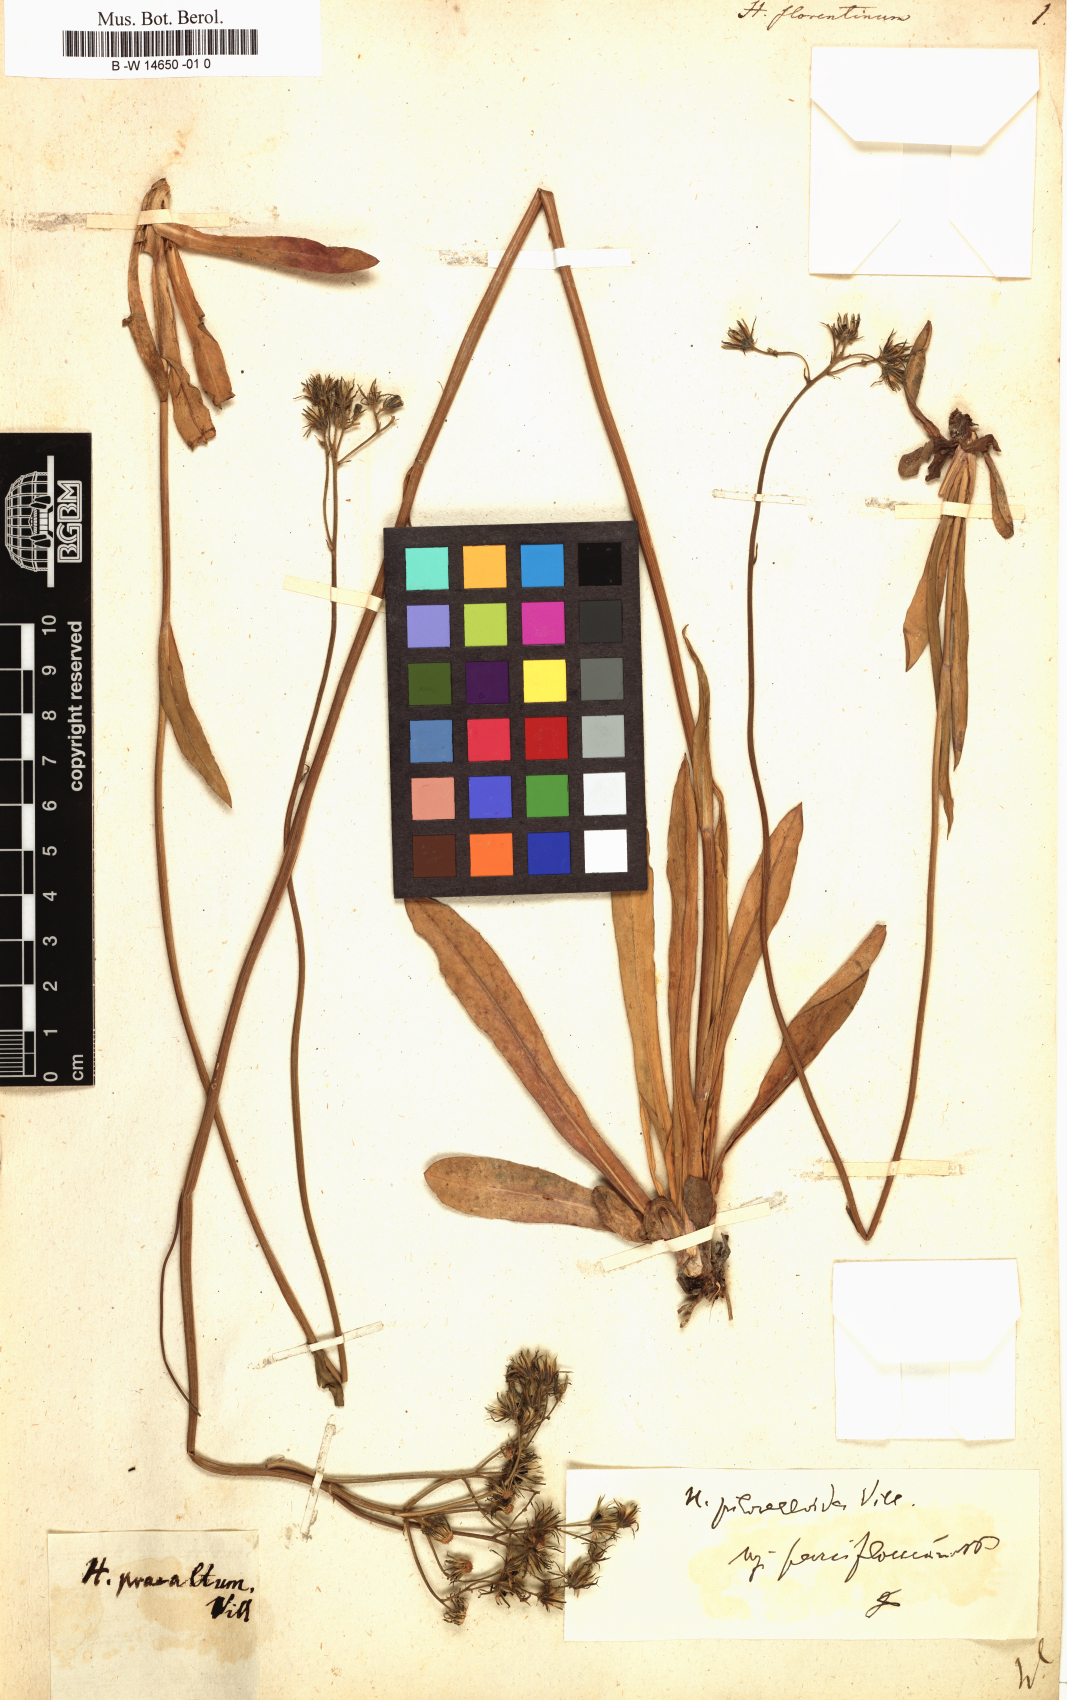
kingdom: Plantae
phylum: Tracheophyta
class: Magnoliopsida
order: Asterales
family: Asteraceae
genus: Hieracium
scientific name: Hieracium florentinum
